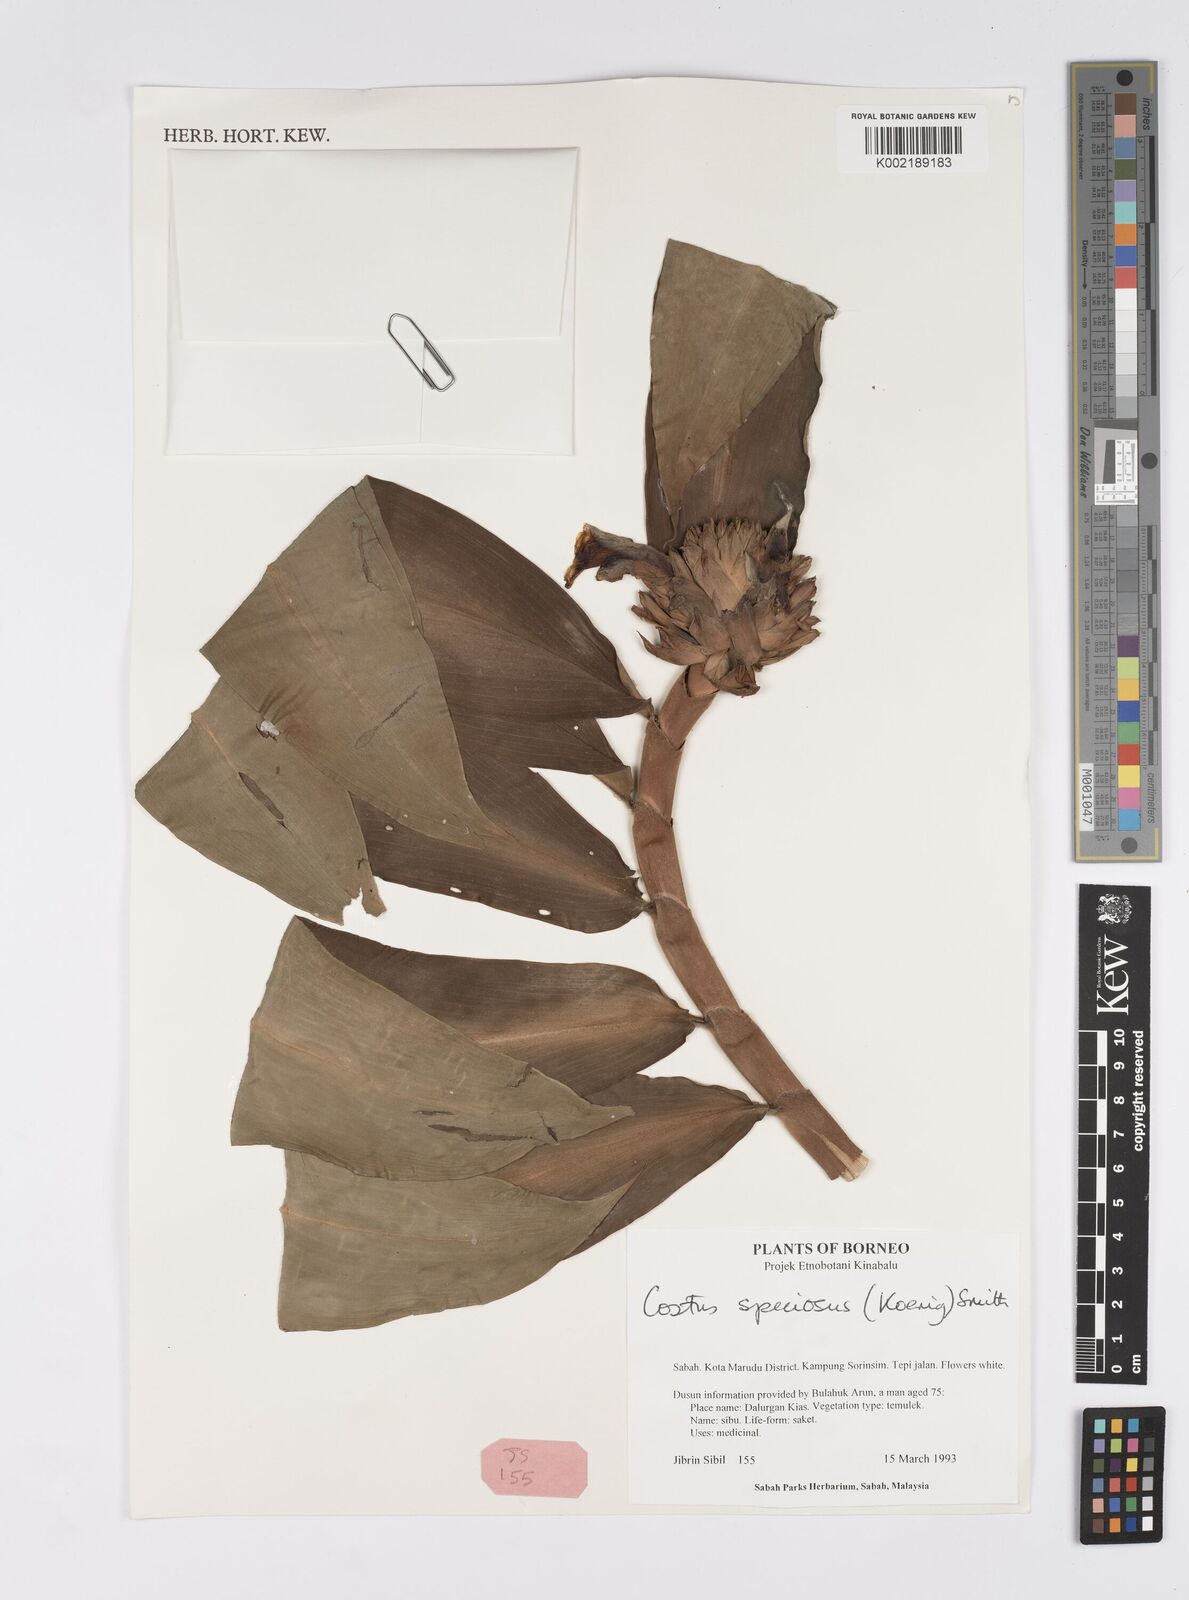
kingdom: Plantae
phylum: Tracheophyta
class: Liliopsida
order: Zingiberales
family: Costaceae
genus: Hellenia
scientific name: Hellenia speciosa
